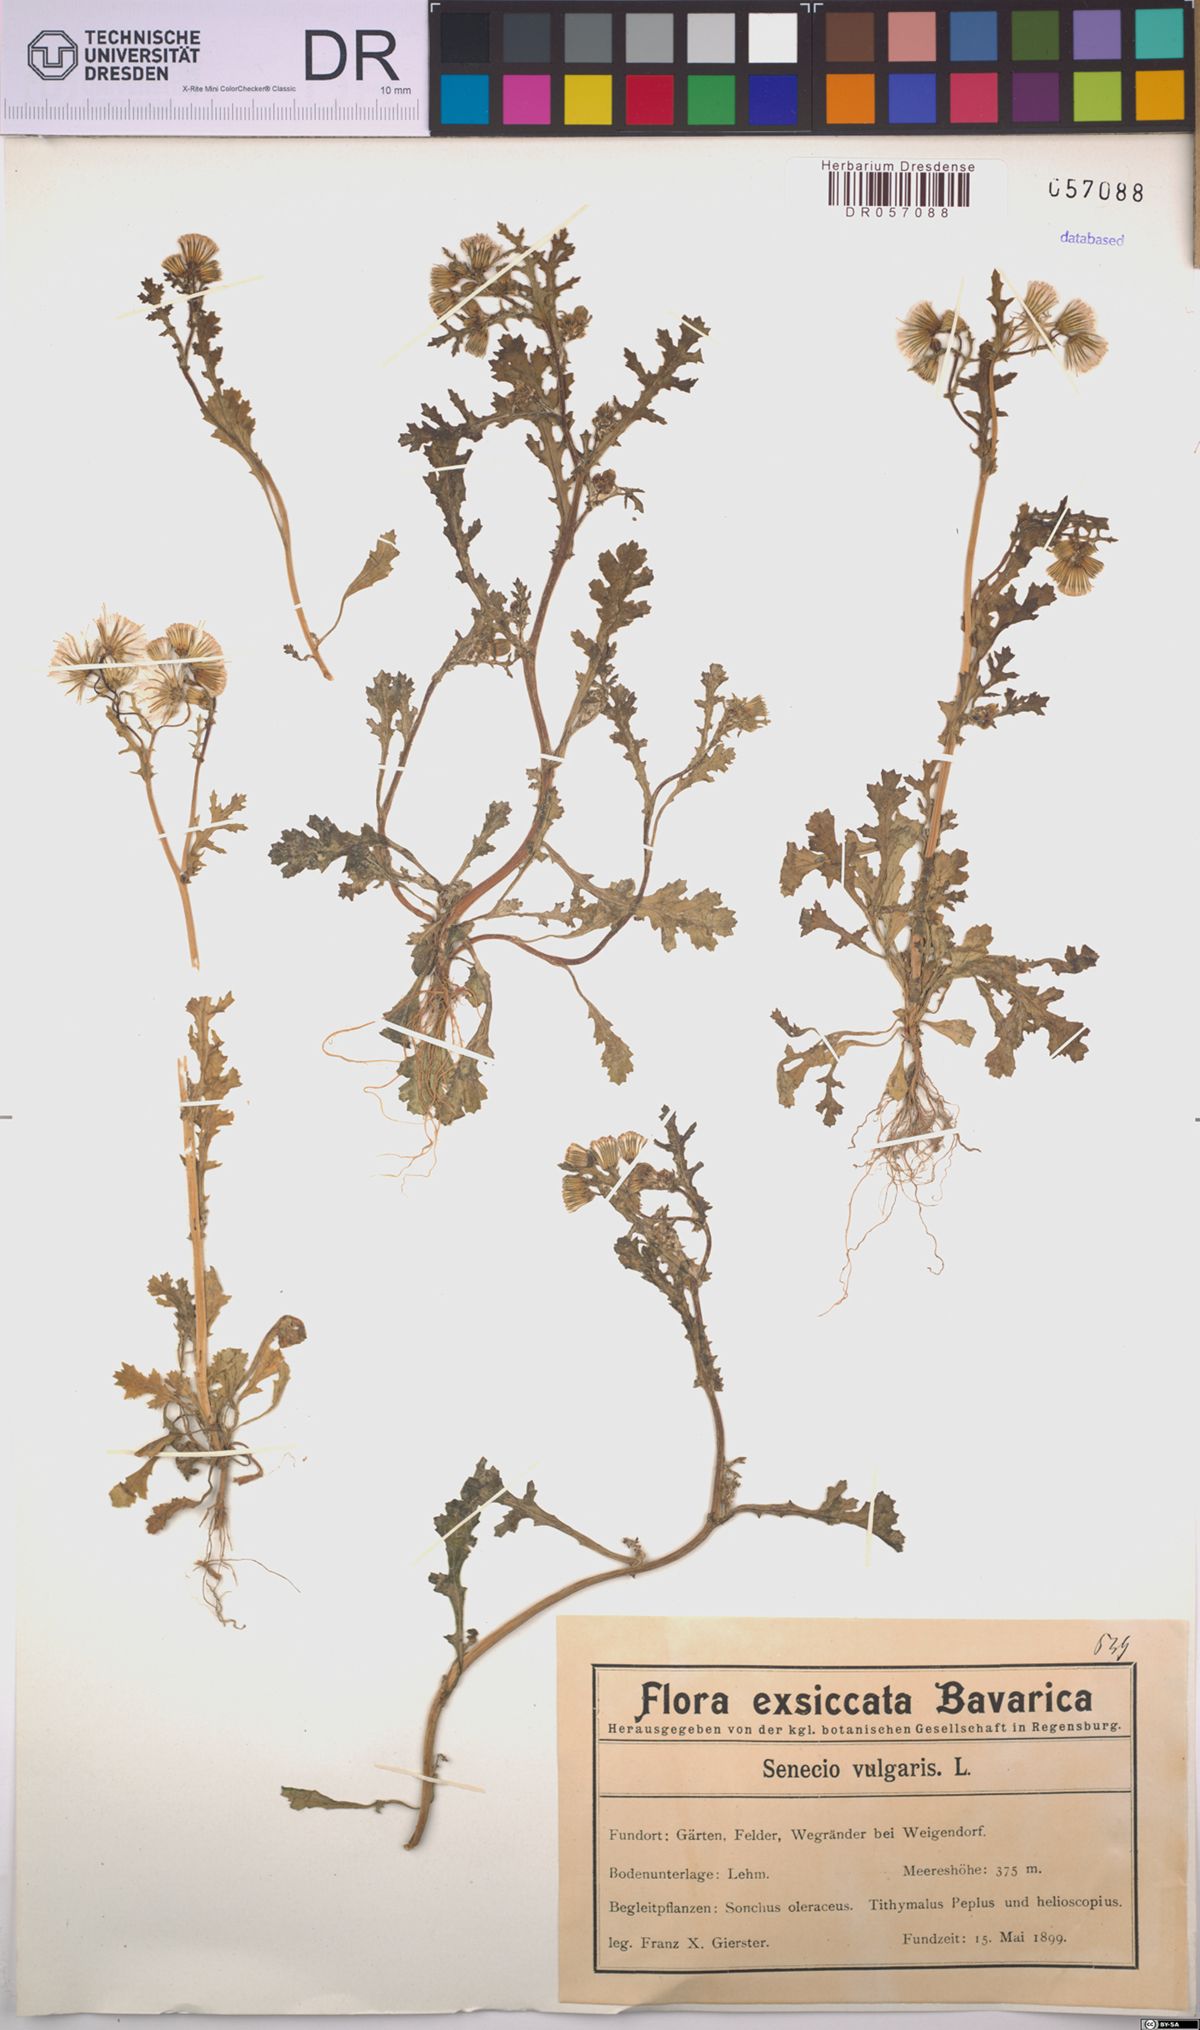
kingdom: Plantae
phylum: Tracheophyta
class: Magnoliopsida
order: Asterales
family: Asteraceae
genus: Senecio
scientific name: Senecio vulgaris
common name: Old-man-in-the-spring
